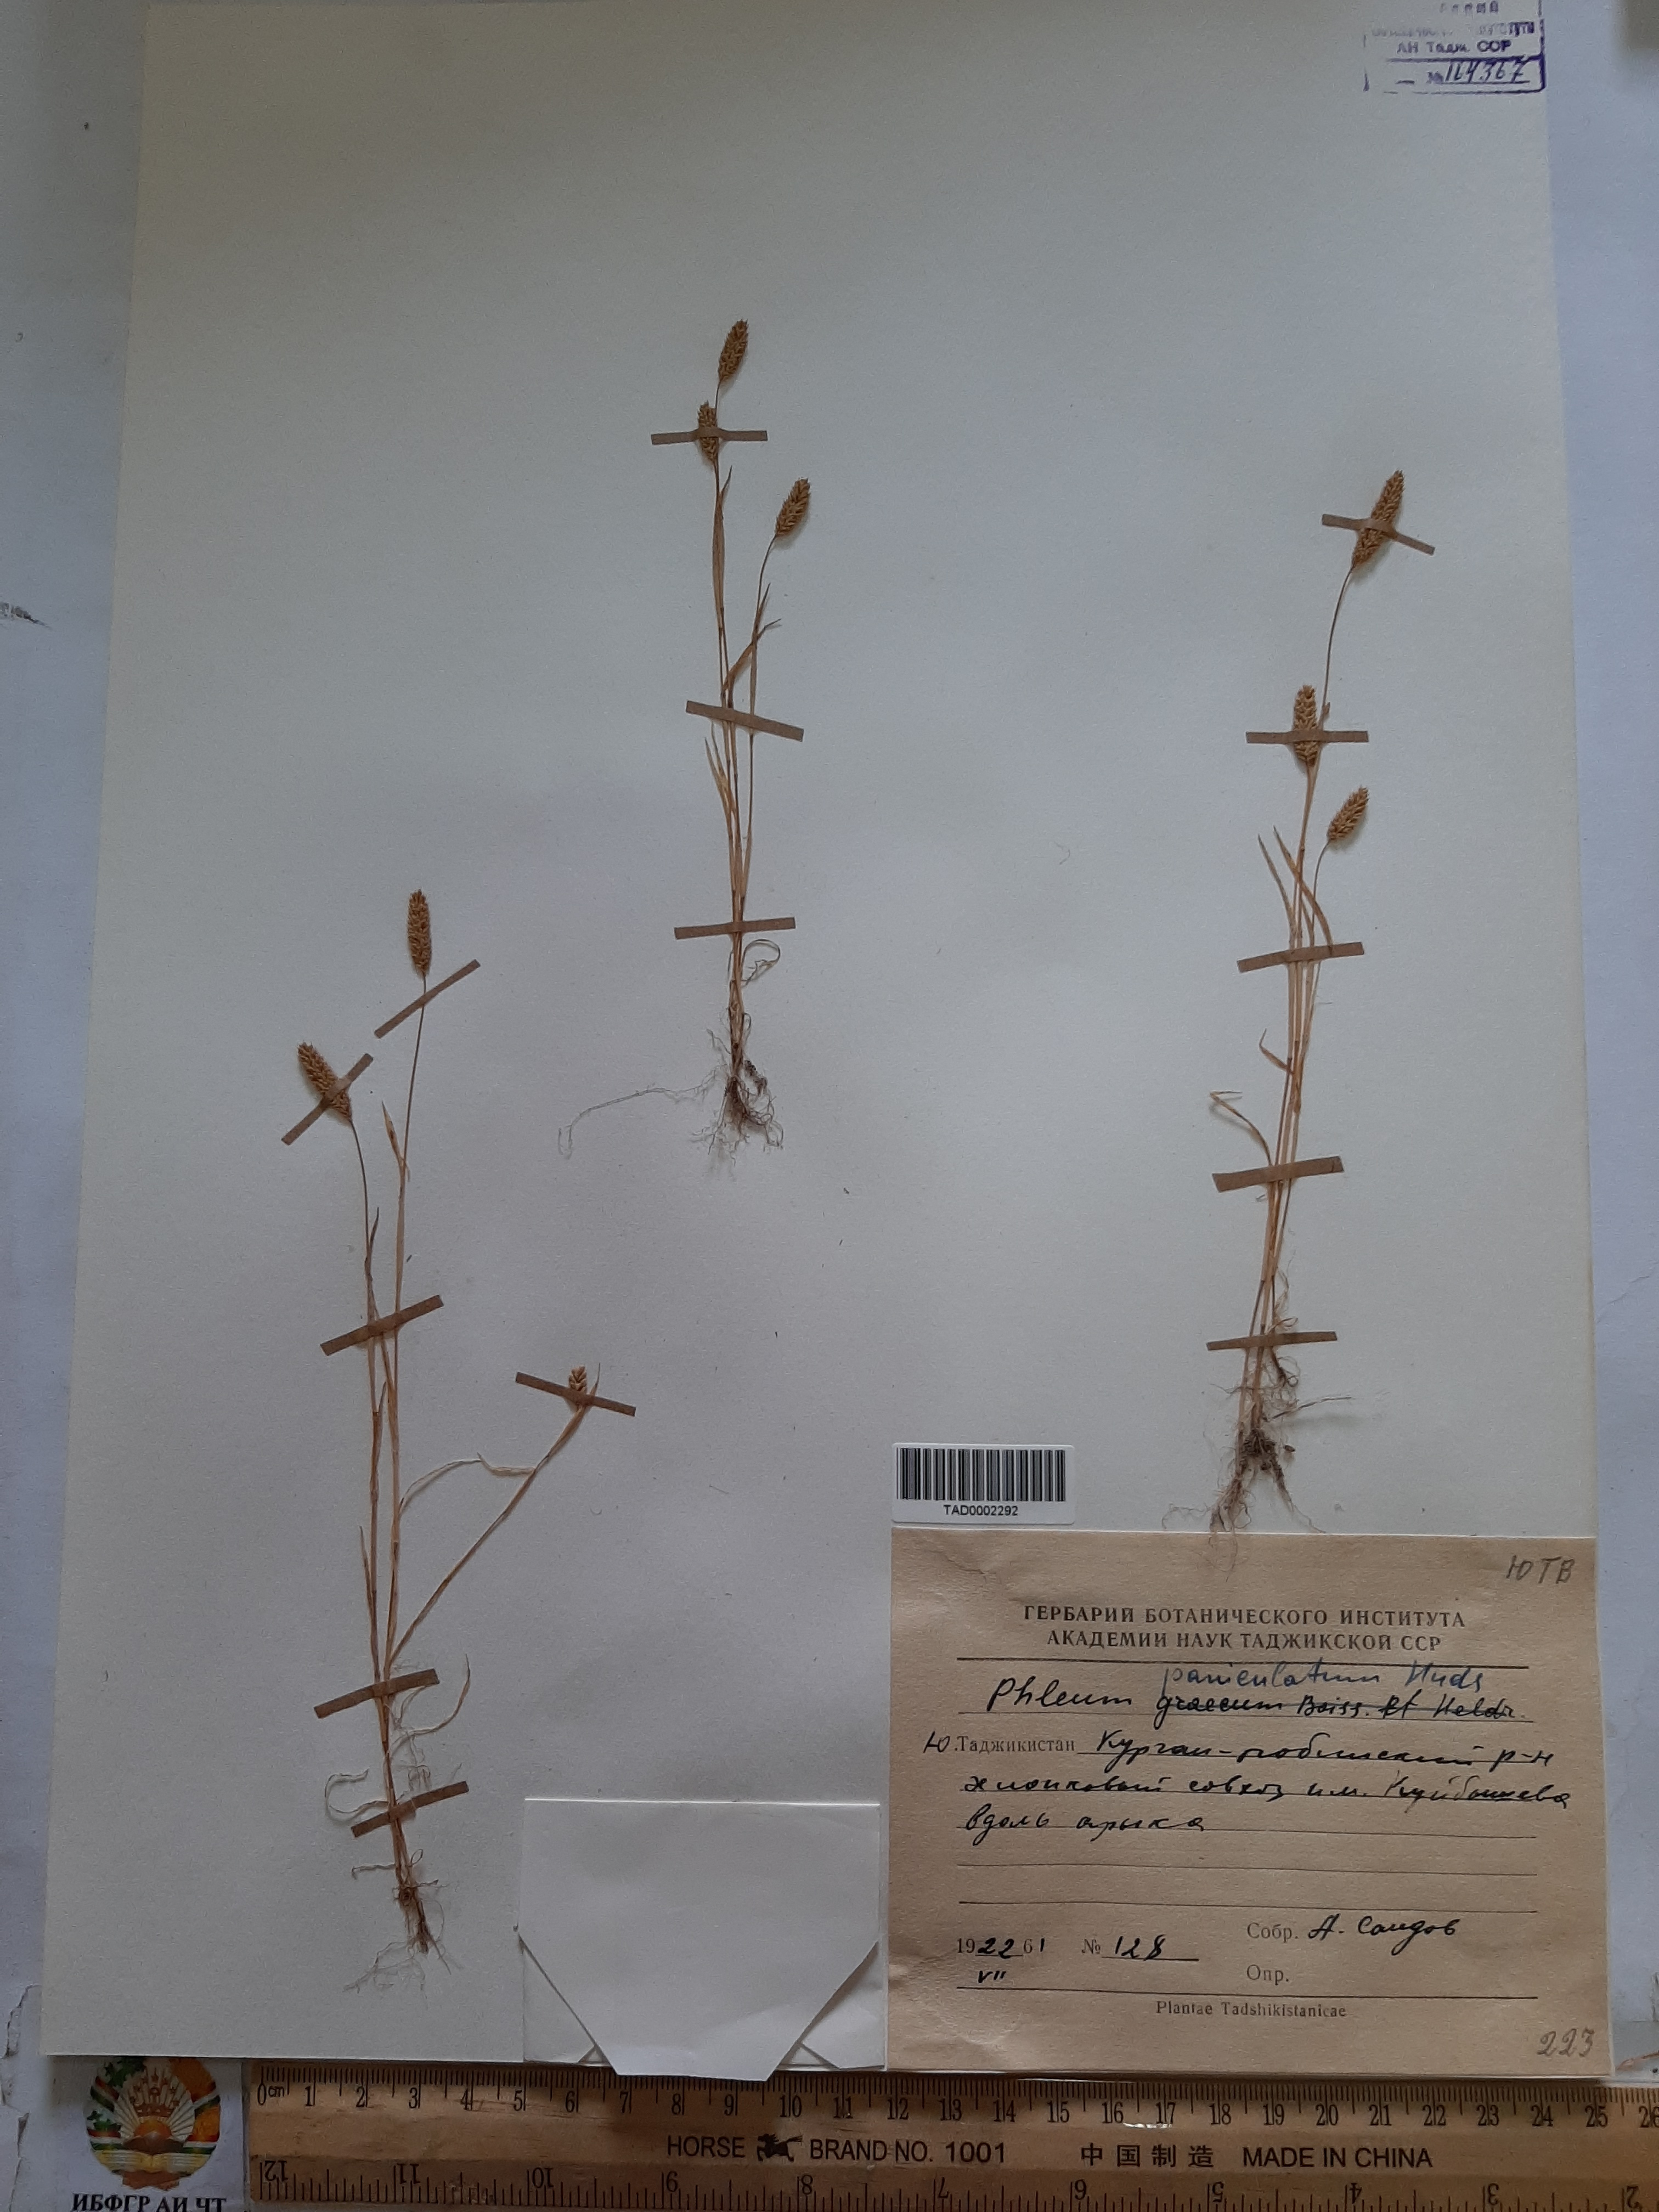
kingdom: Plantae
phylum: Tracheophyta
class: Liliopsida
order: Poales
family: Poaceae
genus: Phleum
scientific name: Phleum paniculatum
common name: British timothy
